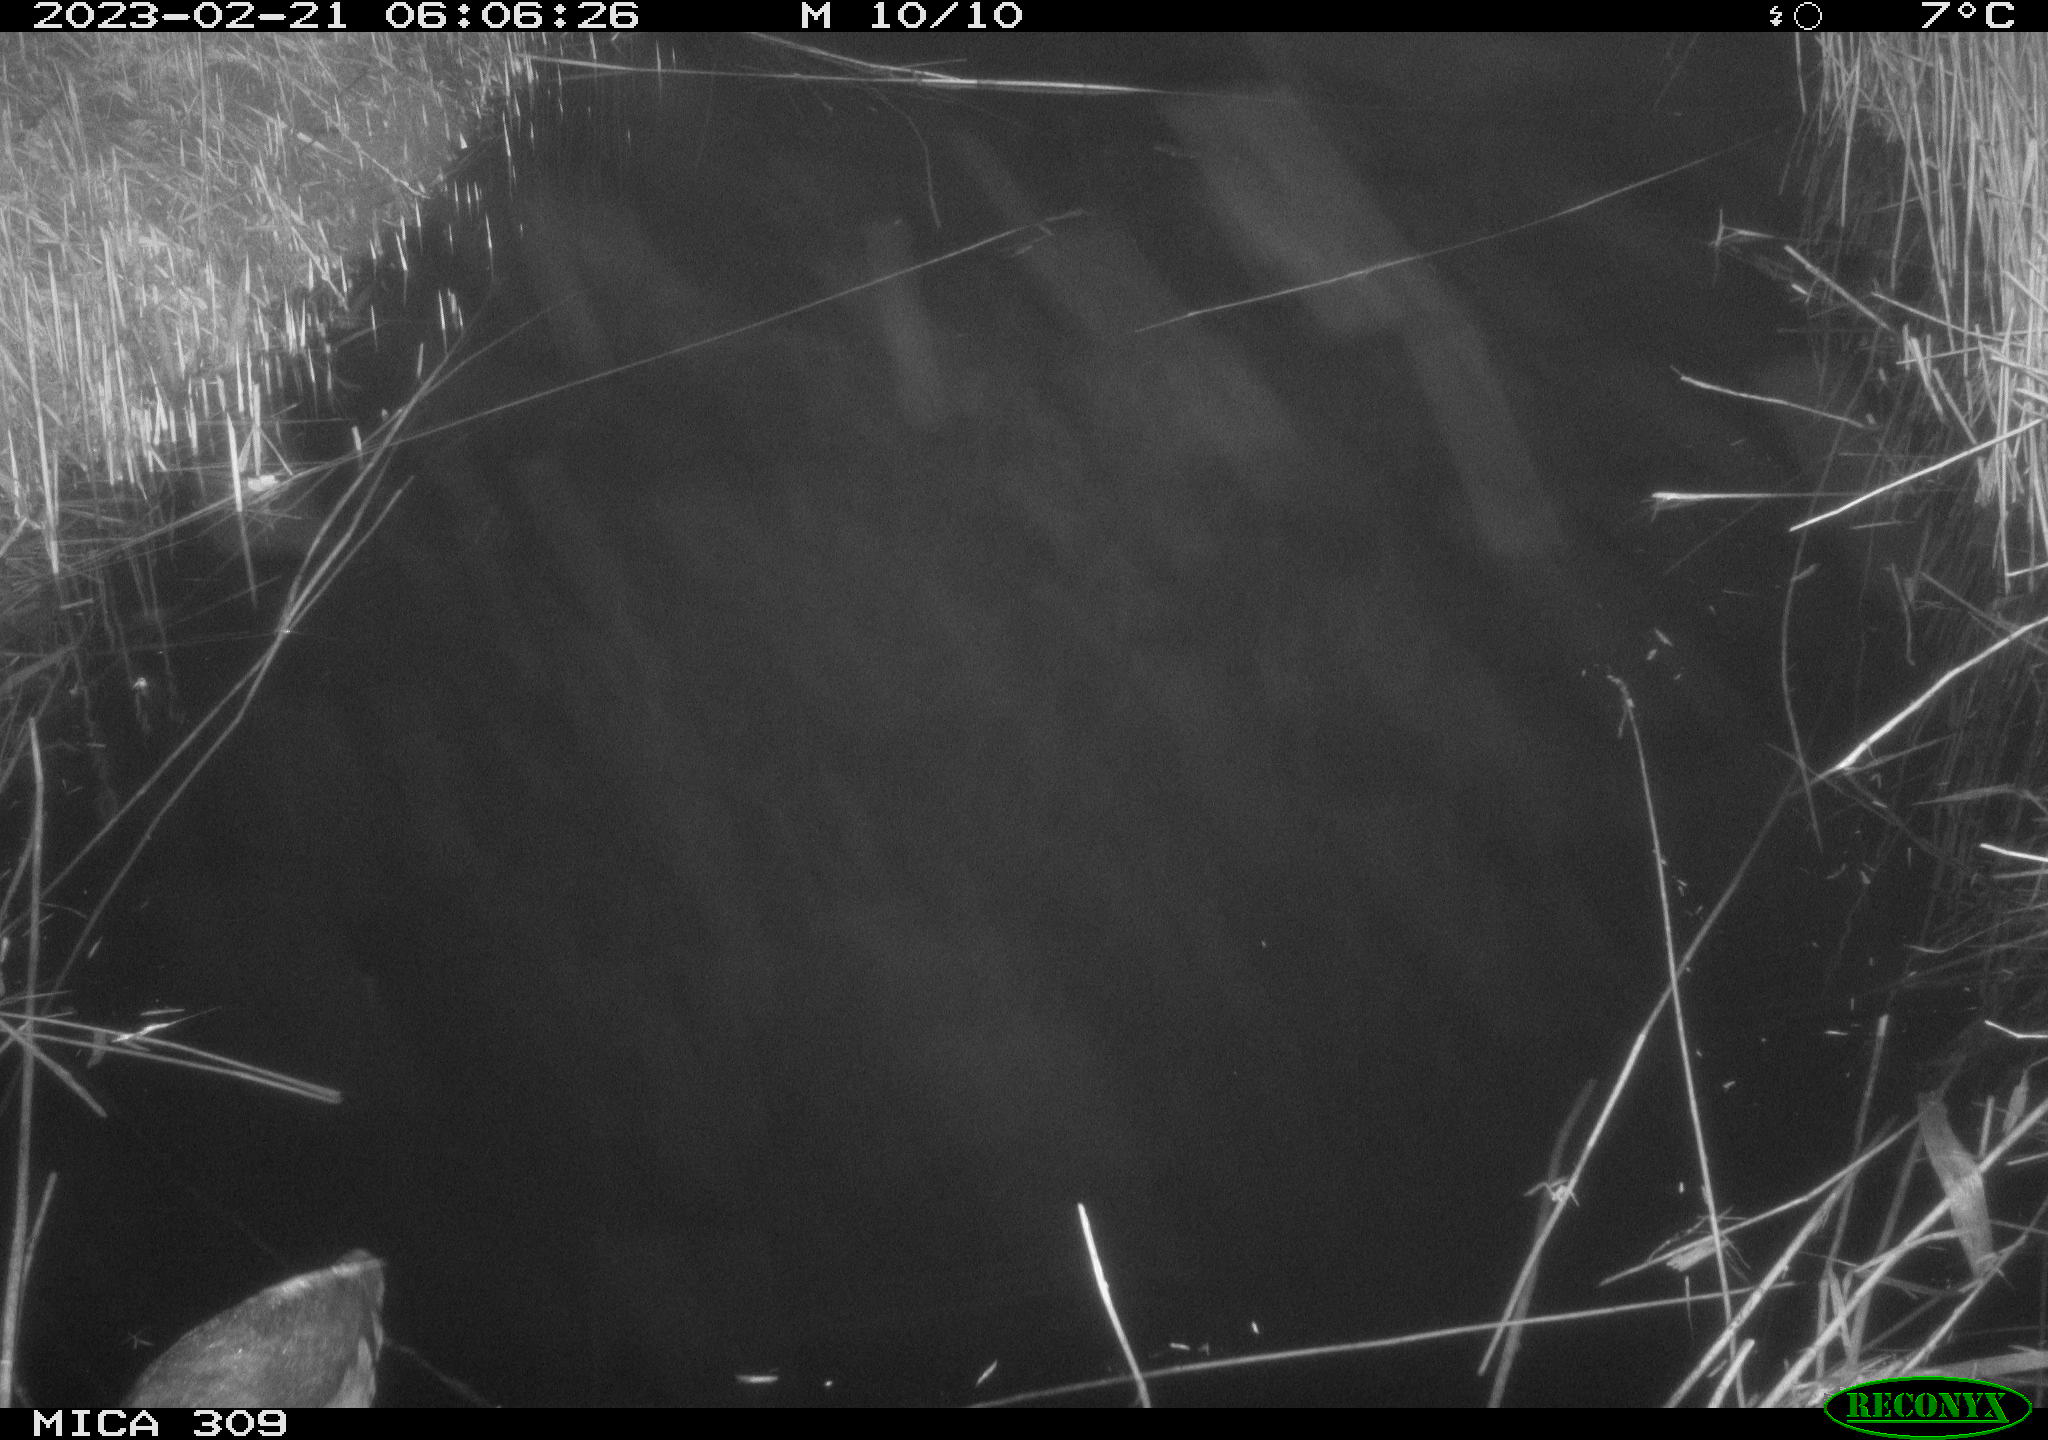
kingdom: Animalia
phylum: Chordata
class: Aves
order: Gruiformes
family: Rallidae
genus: Fulica
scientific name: Fulica atra
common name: Eurasian coot
